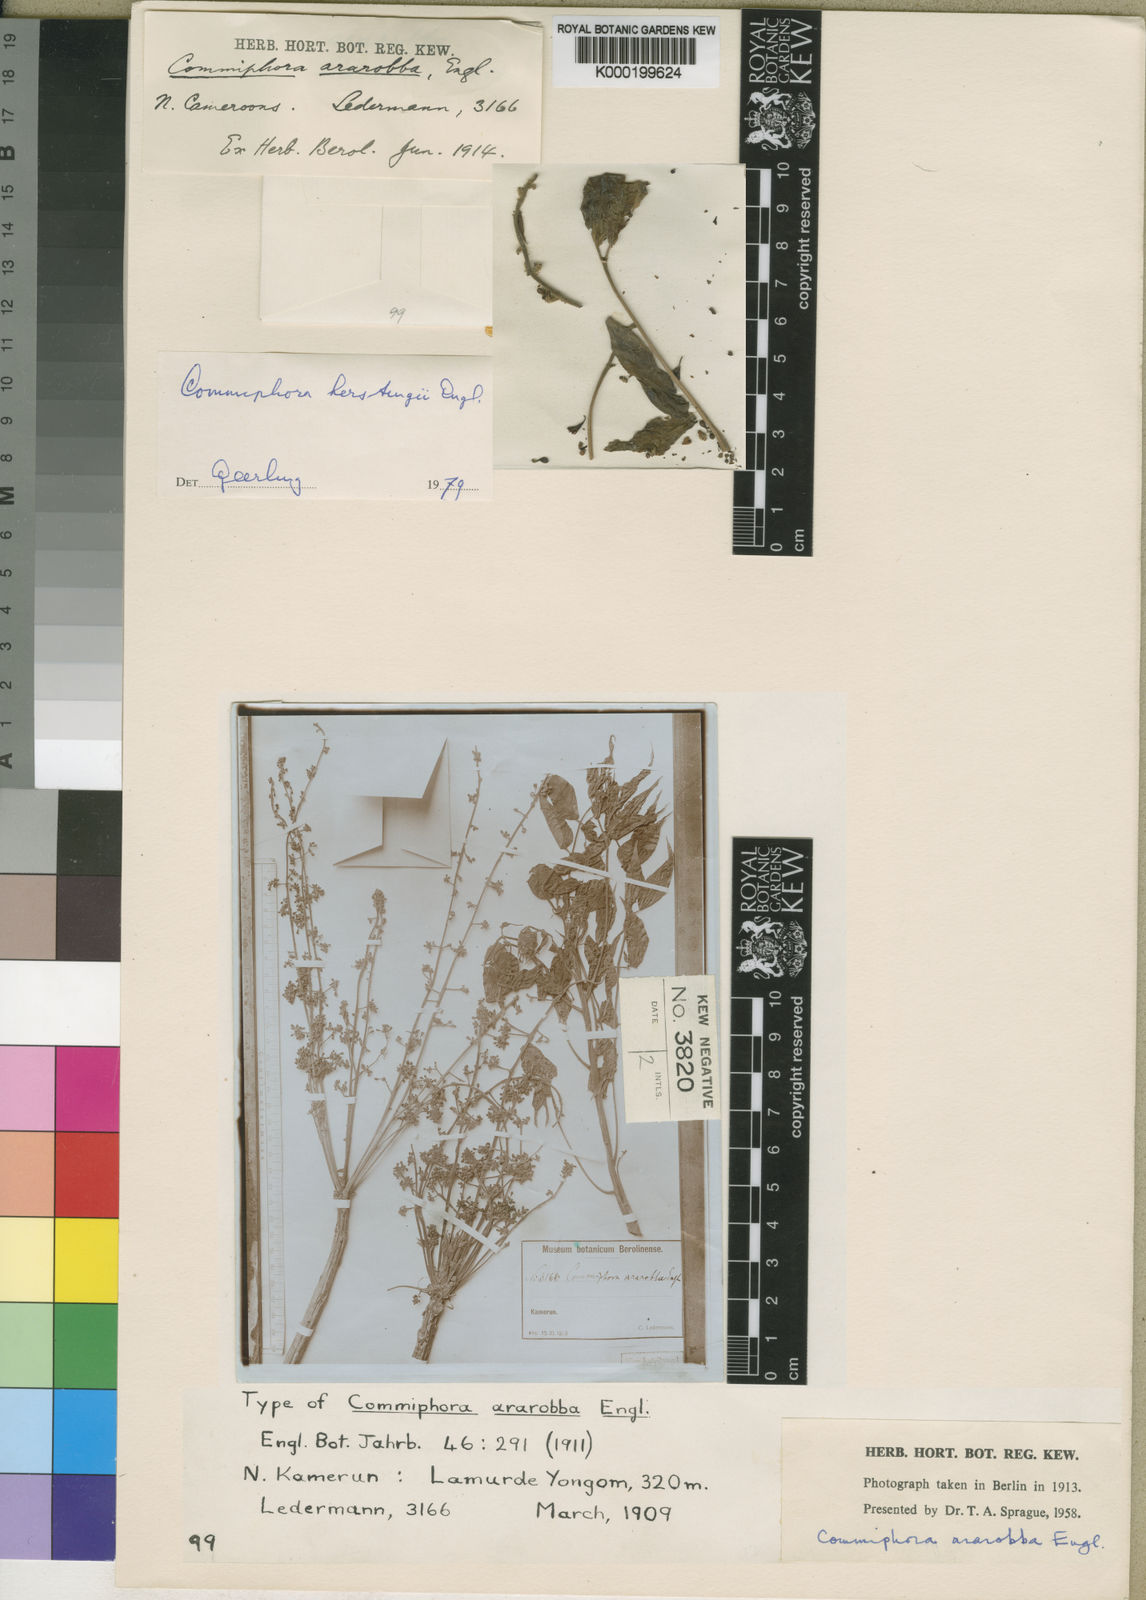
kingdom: Plantae
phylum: Tracheophyta
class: Magnoliopsida
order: Sapindales
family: Burseraceae
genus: Commiphora
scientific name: Commiphora kerstingii
